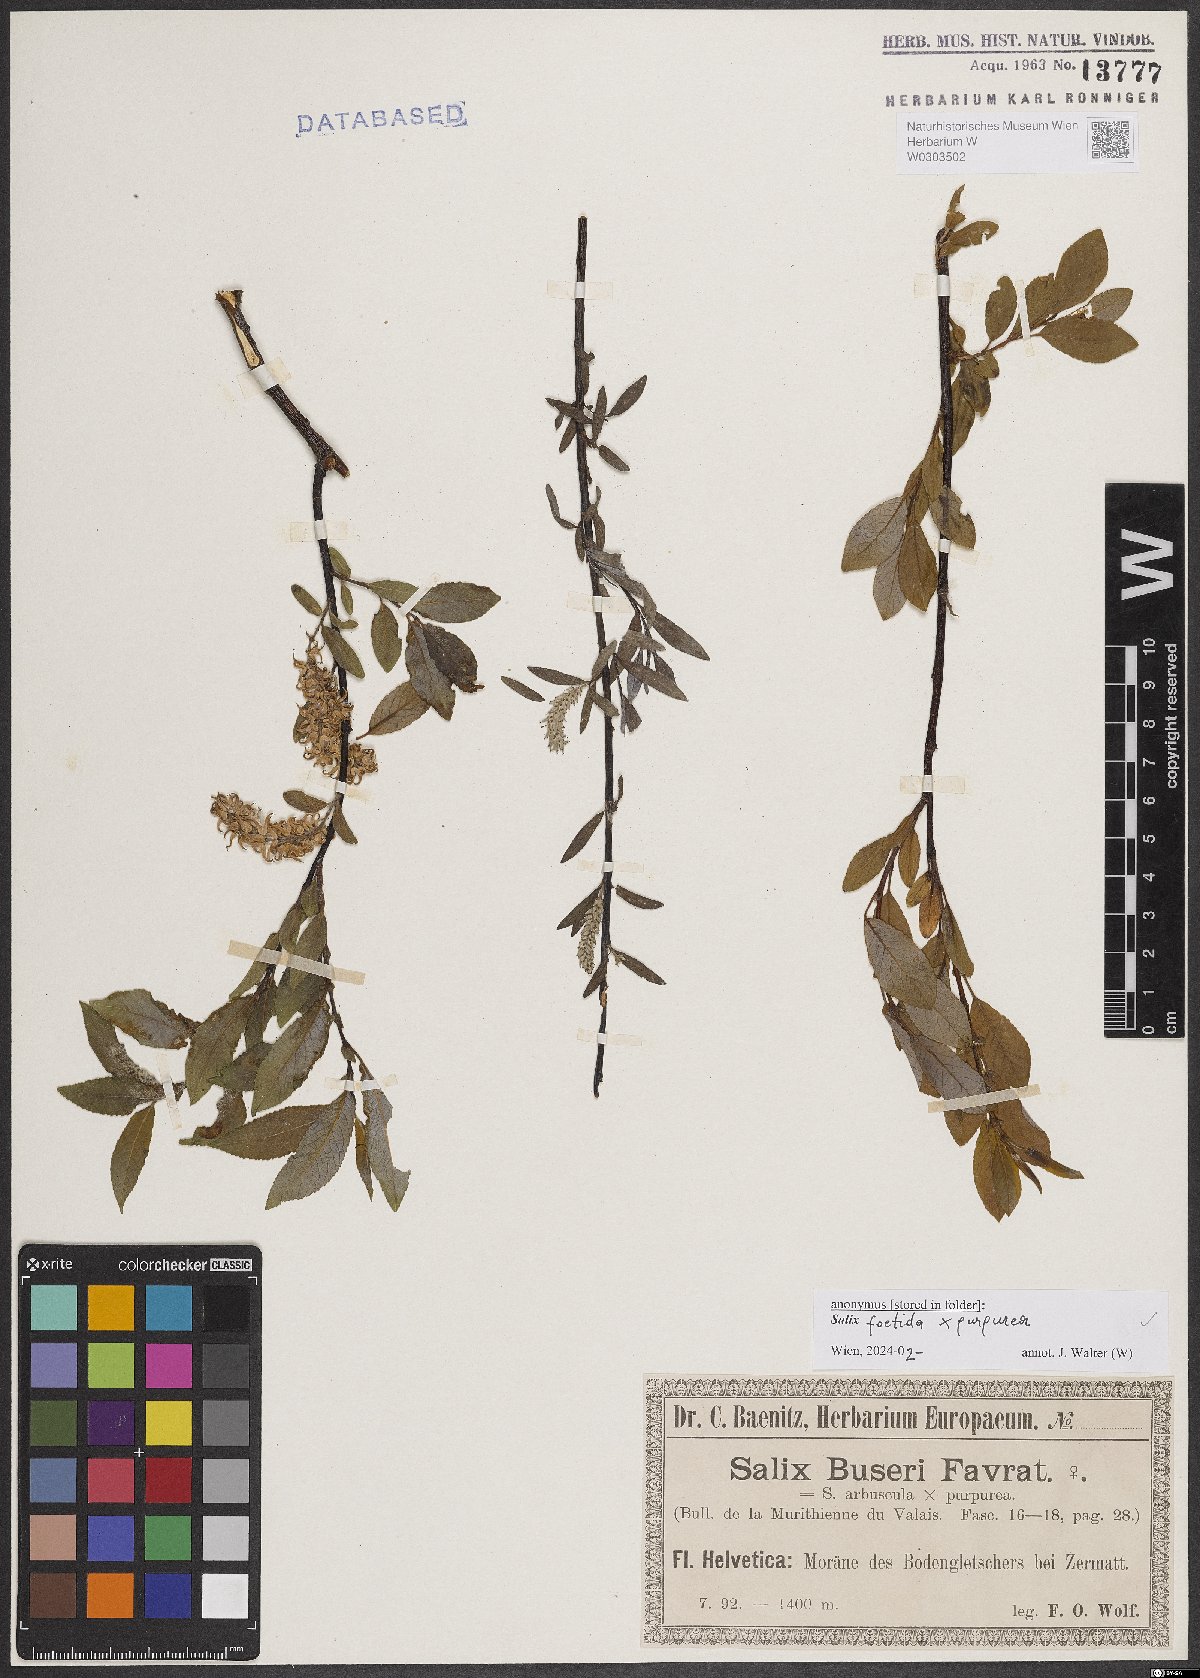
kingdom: Plantae
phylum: Tracheophyta
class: Magnoliopsida
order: Malpighiales
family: Salicaceae
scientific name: Salicaceae
